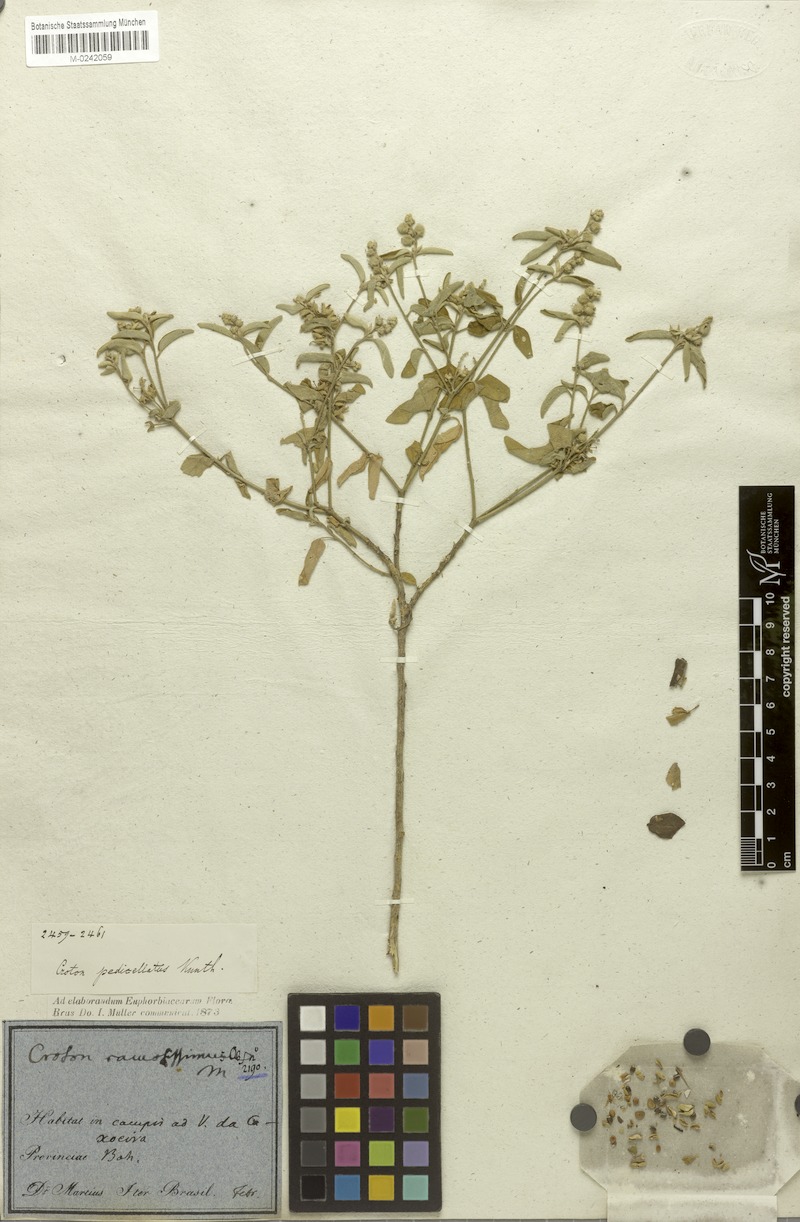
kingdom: Plantae
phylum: Tracheophyta
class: Magnoliopsida
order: Malpighiales
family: Euphorbiaceae
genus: Croton
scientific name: Croton pedicellatus
